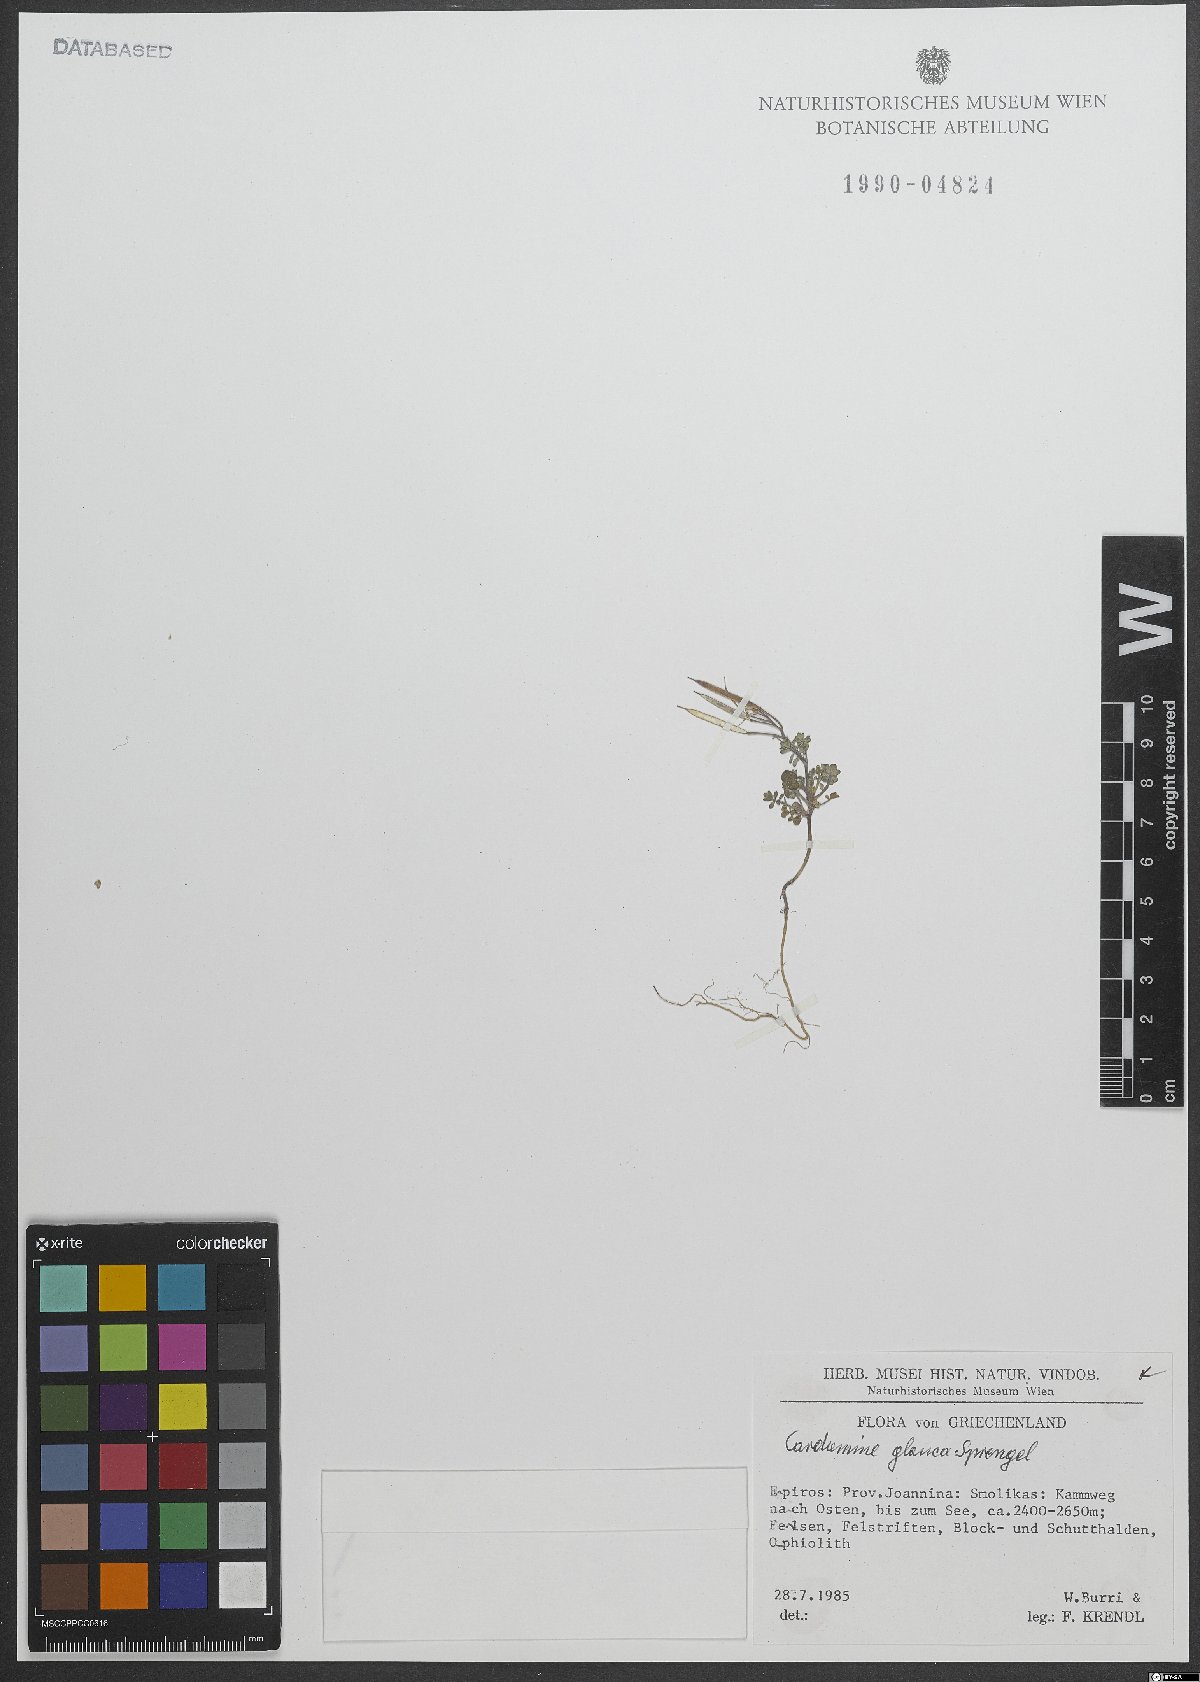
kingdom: Plantae
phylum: Tracheophyta
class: Magnoliopsida
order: Brassicales
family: Brassicaceae
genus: Cardamine
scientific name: Cardamine glauca
